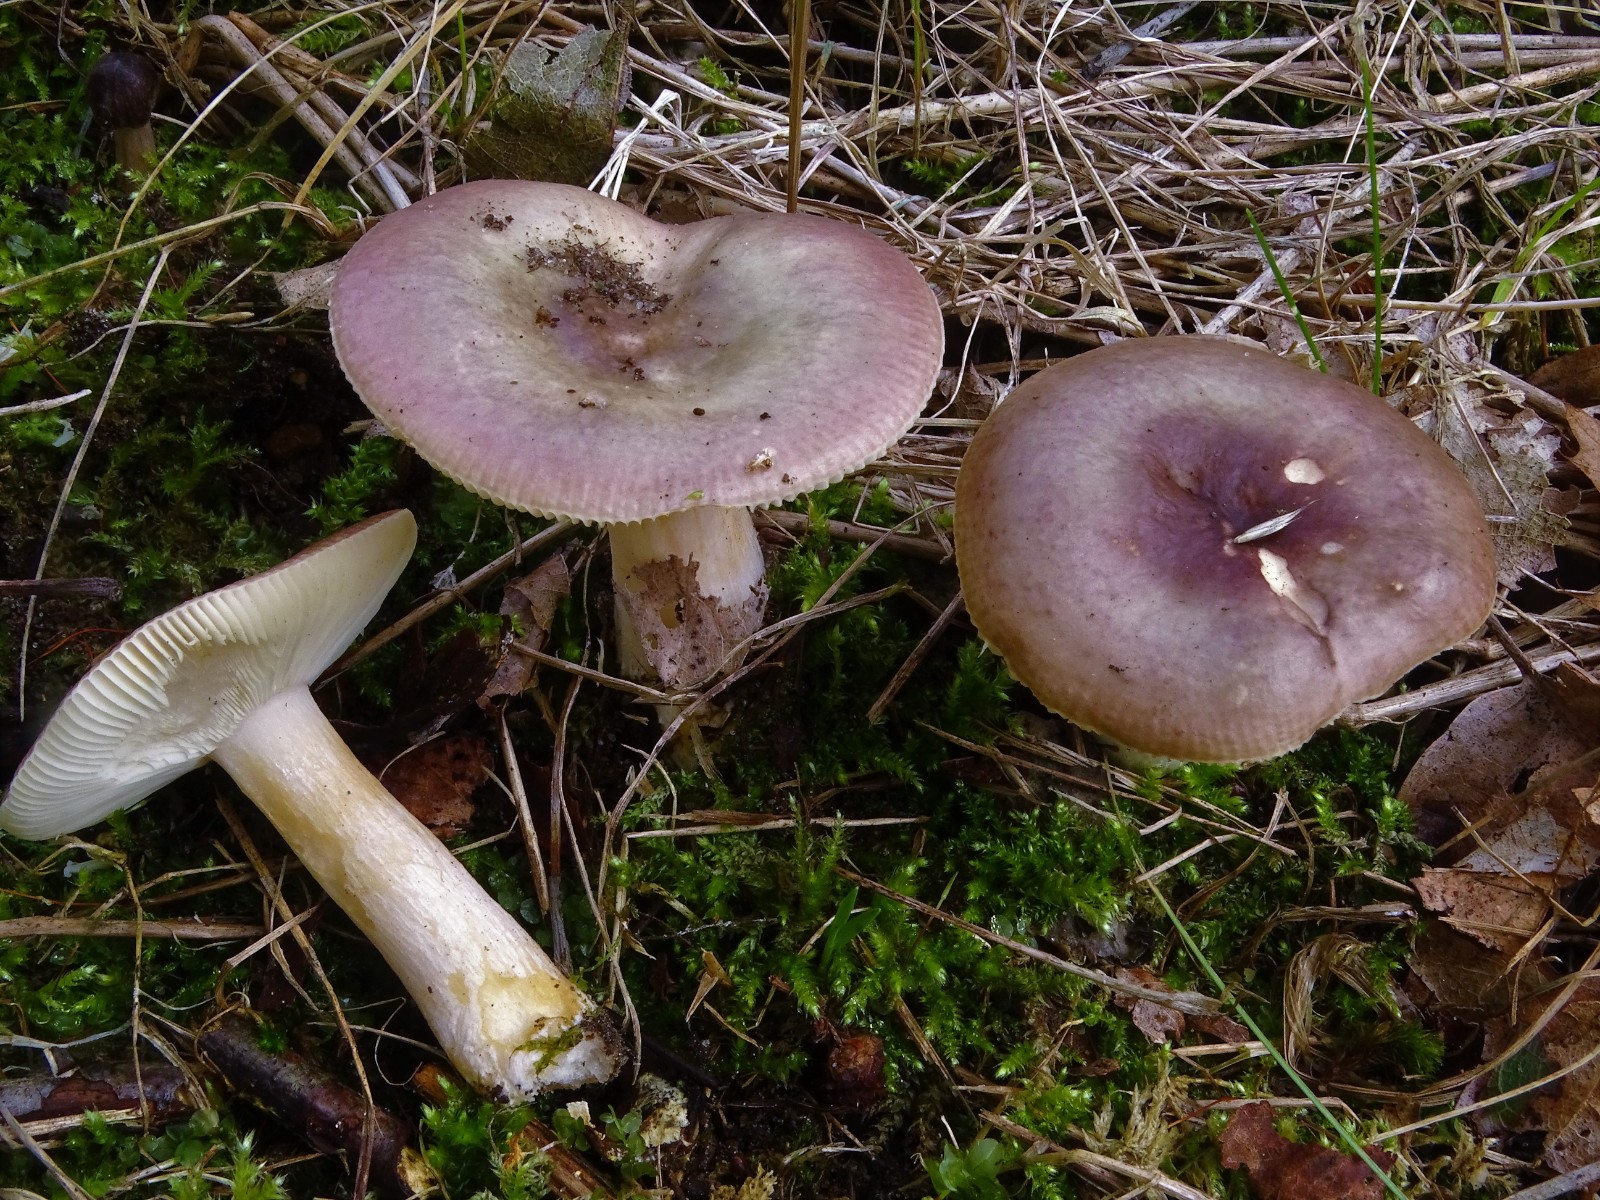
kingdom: Fungi
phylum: Basidiomycota
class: Agaricomycetes
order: Russulales
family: Russulaceae
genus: Russula
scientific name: Russula versicolor
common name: foranderlig skørhat
